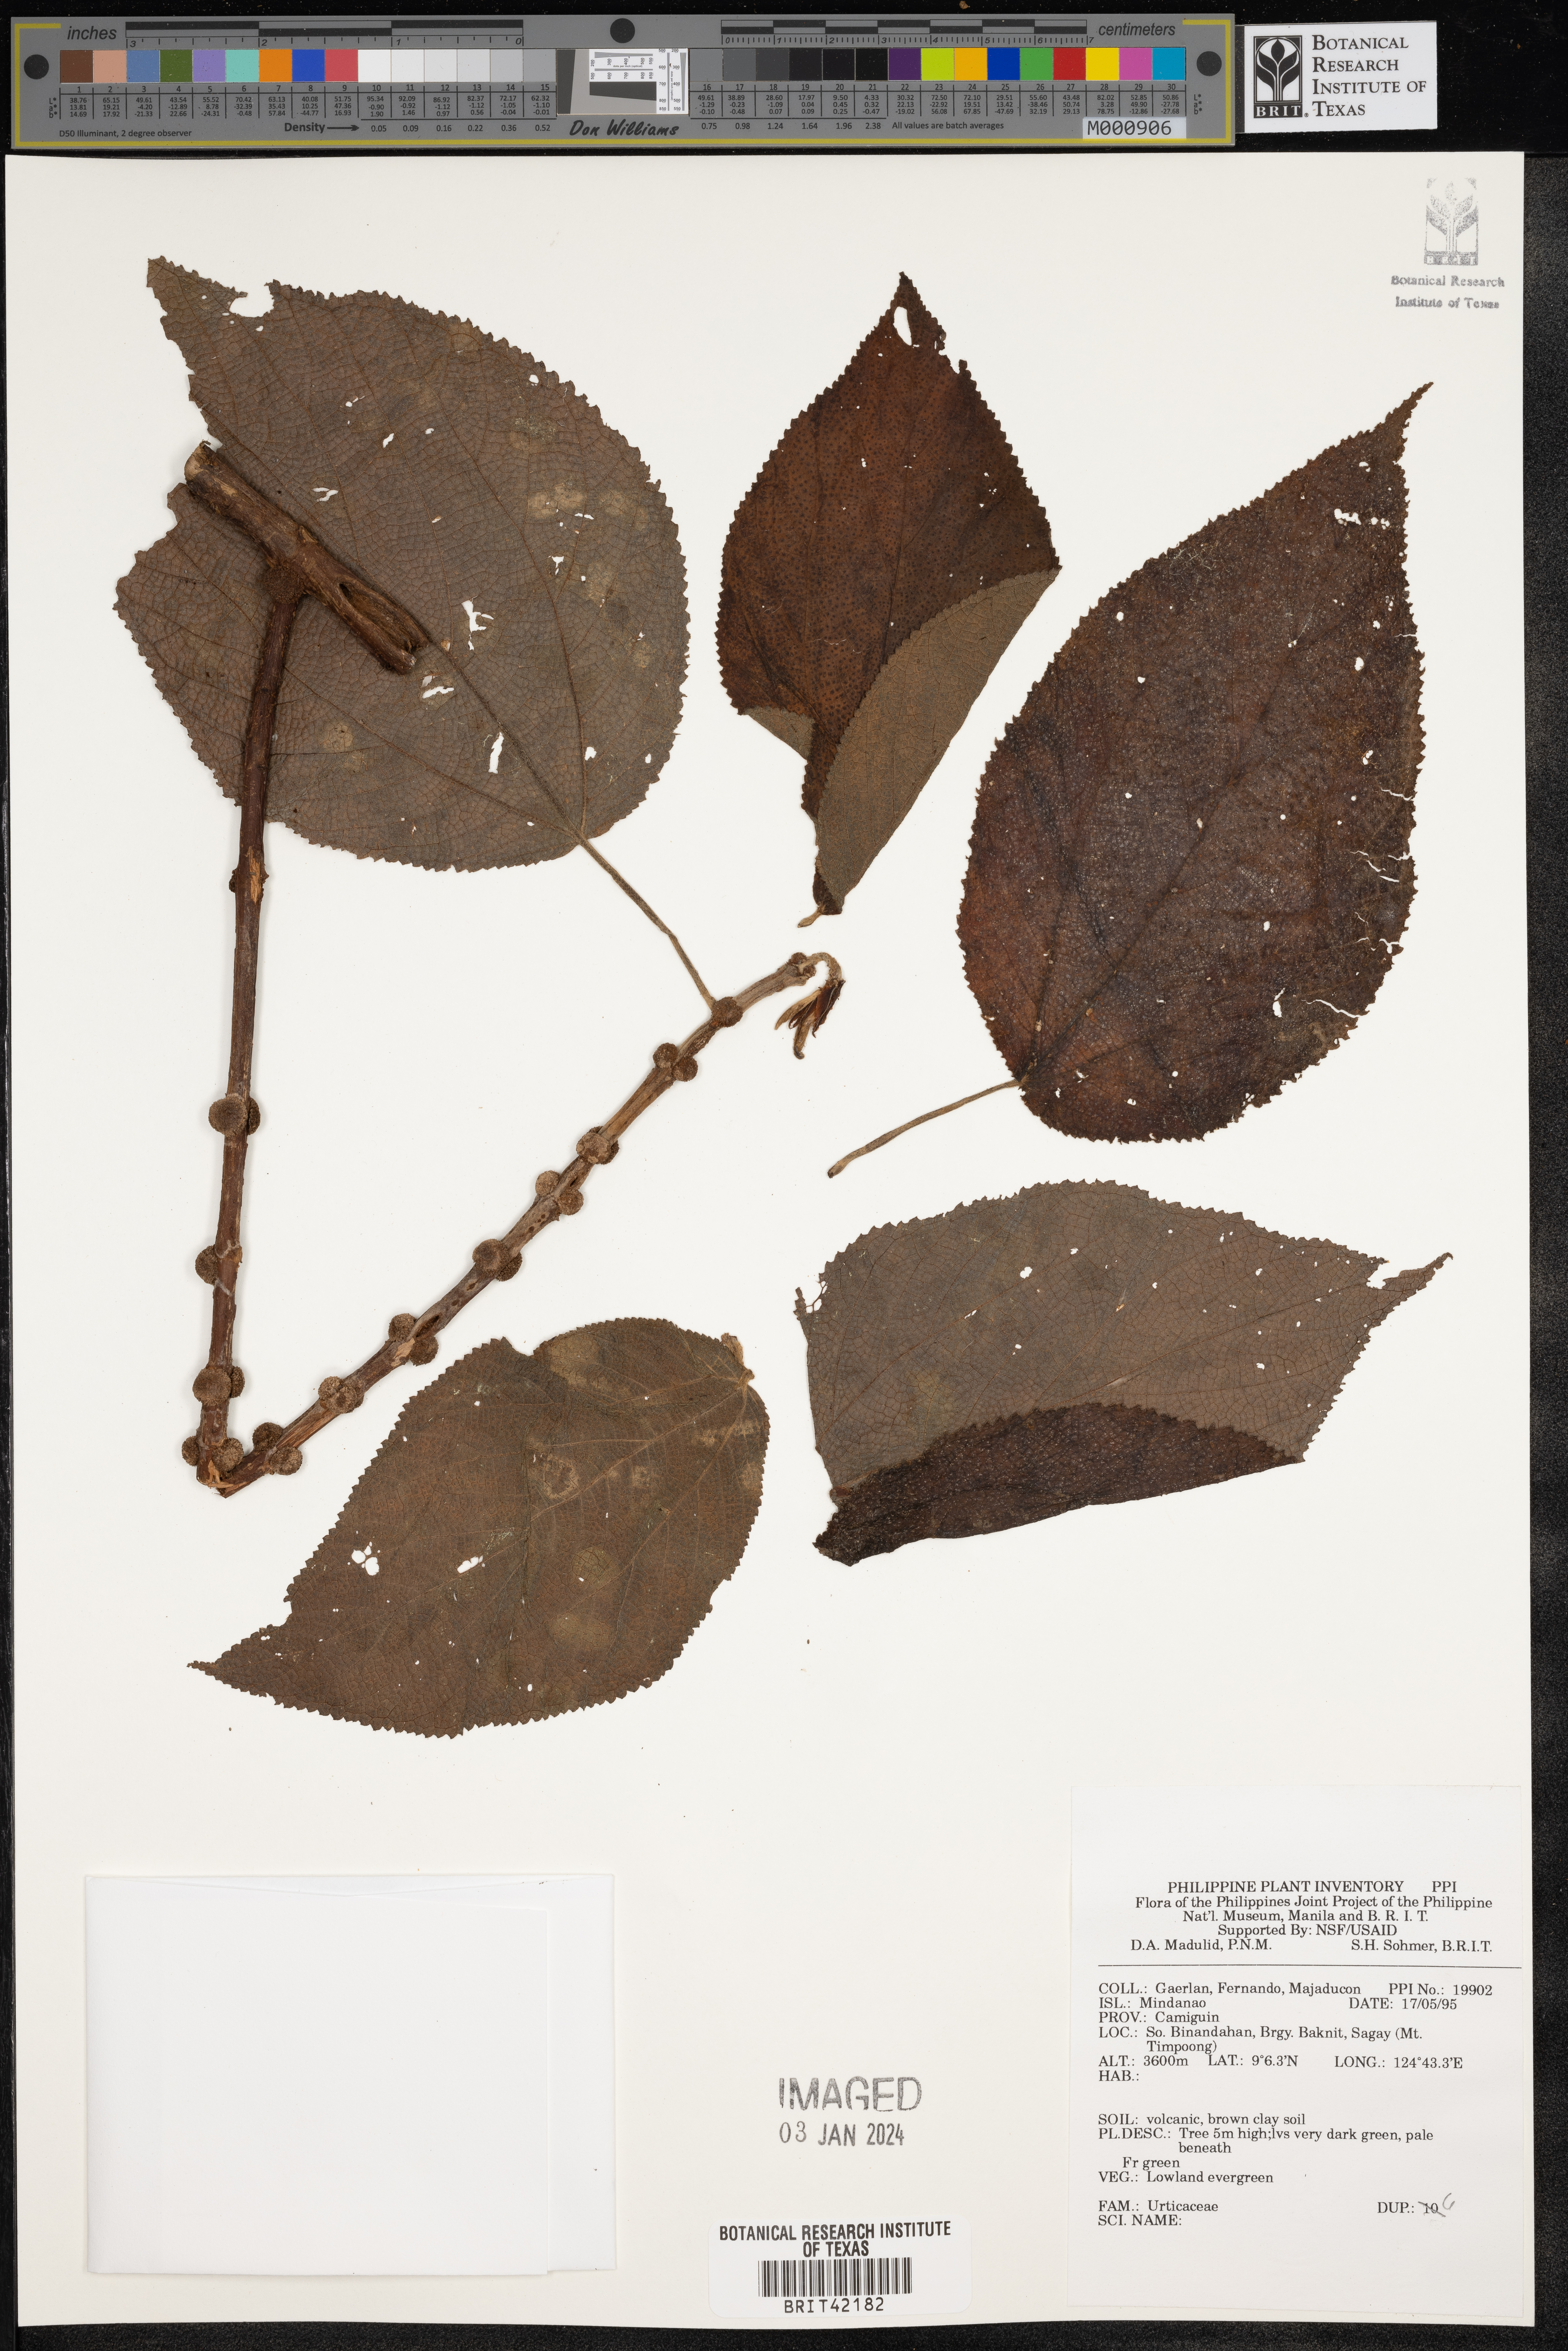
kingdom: Plantae
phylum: Tracheophyta
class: Magnoliopsida
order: Rosales
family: Urticaceae
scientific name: Urticaceae
